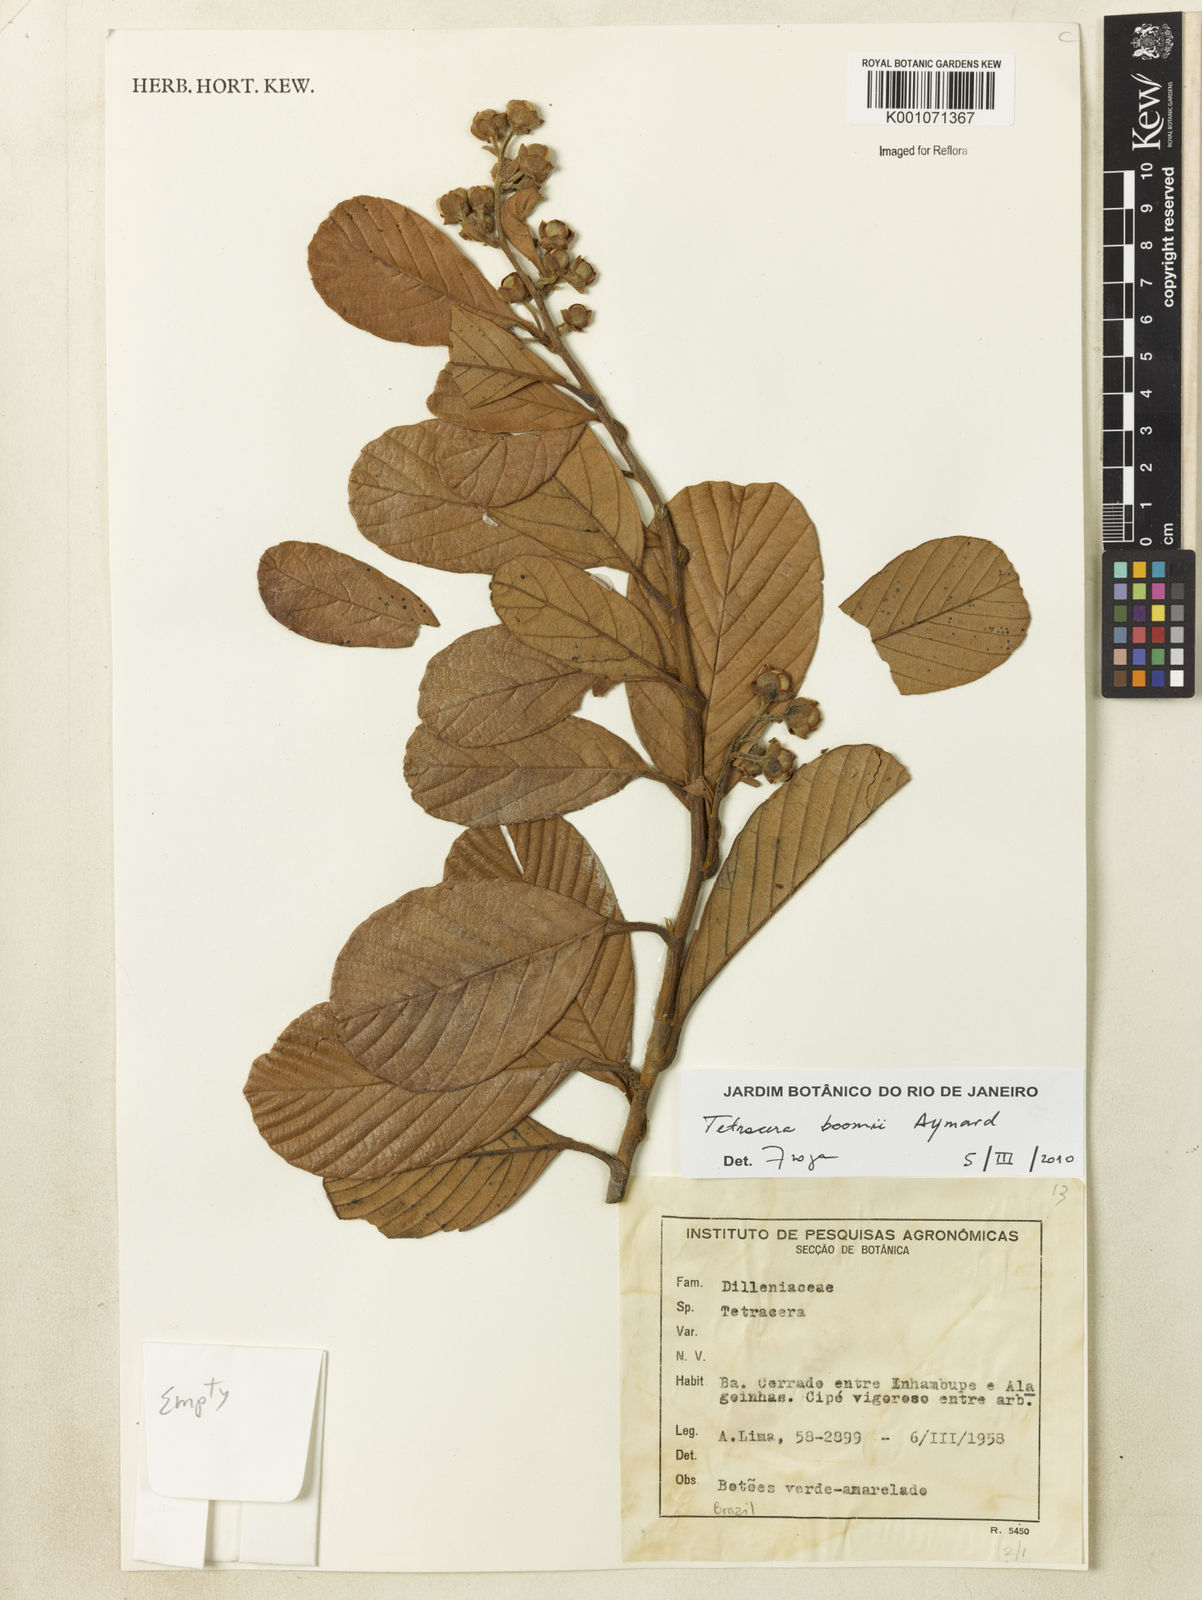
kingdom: Plantae
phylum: Tracheophyta
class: Magnoliopsida
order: Dilleniales
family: Dilleniaceae
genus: Tetracera
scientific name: Tetracera boomii
